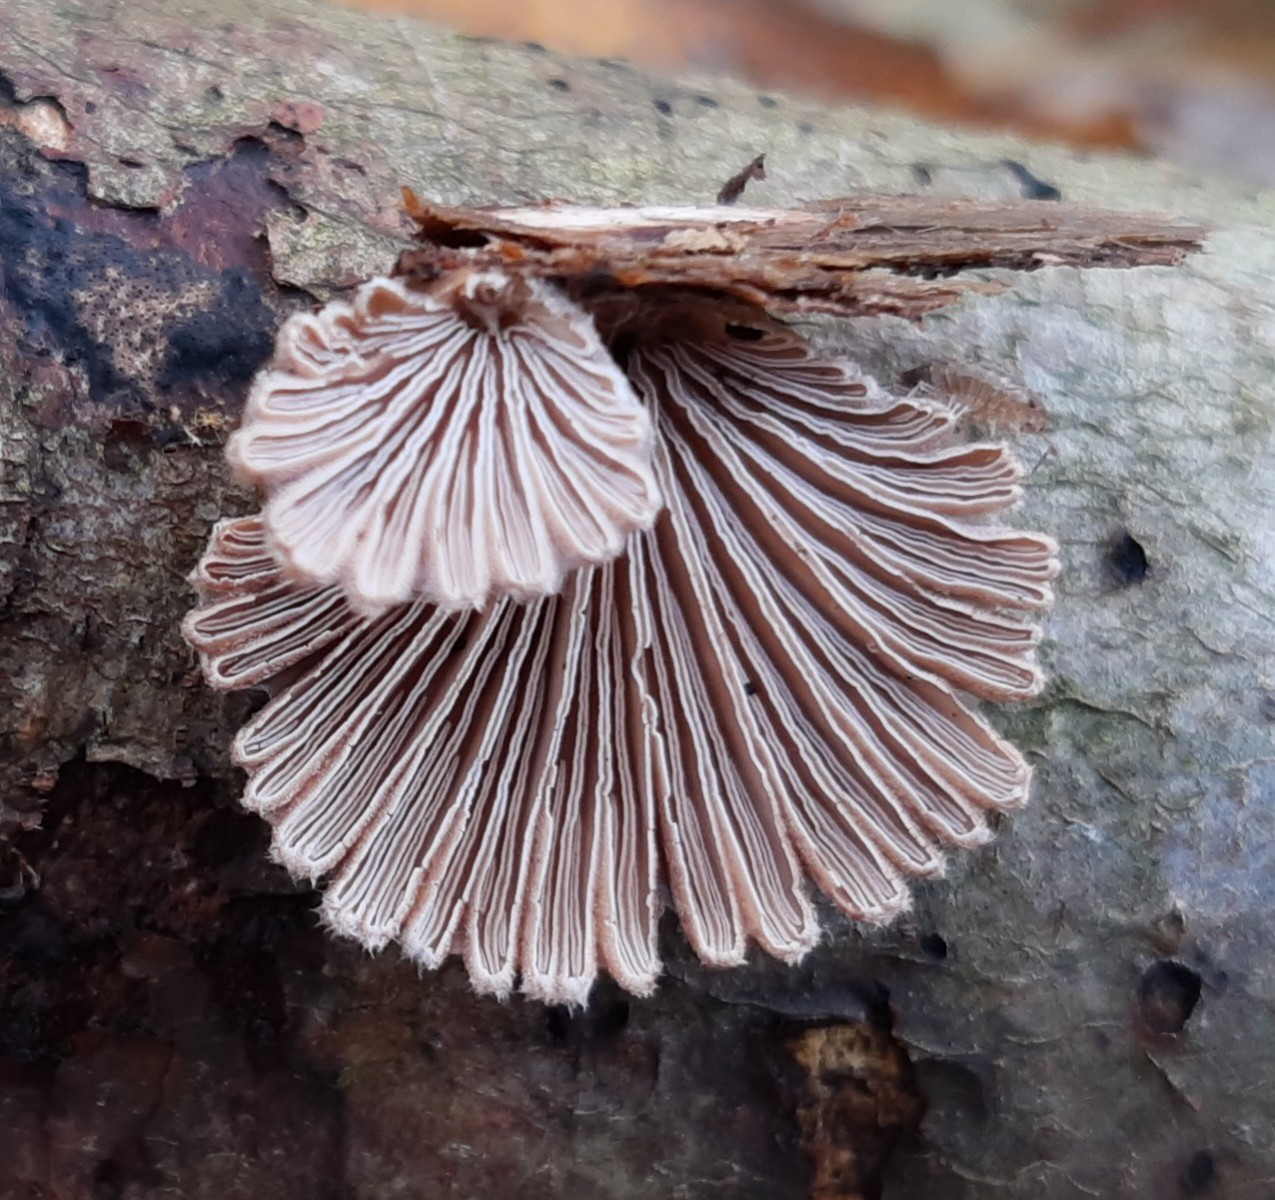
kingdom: Fungi
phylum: Basidiomycota
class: Agaricomycetes
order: Agaricales
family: Schizophyllaceae
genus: Schizophyllum
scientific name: Schizophyllum commune
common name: kløvblad
